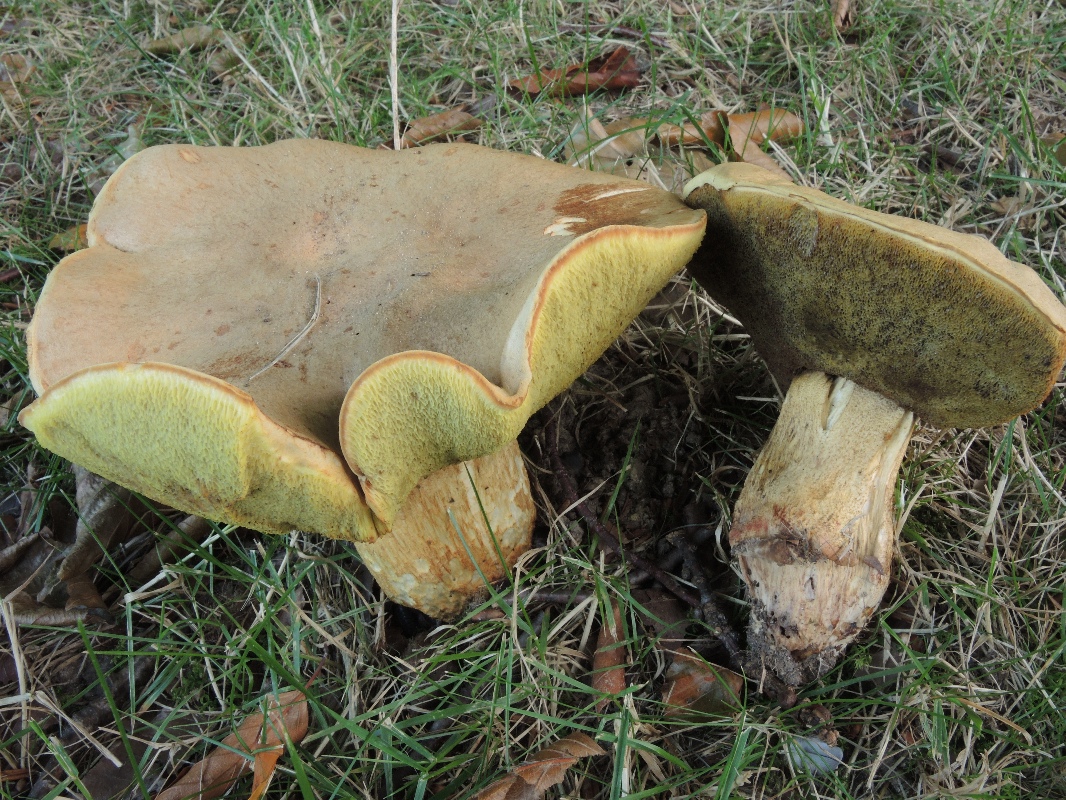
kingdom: Fungi
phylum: Basidiomycota
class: Agaricomycetes
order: Boletales
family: Boletaceae
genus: Hemileccinum
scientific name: Hemileccinum impolitum
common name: bleg rørhat
